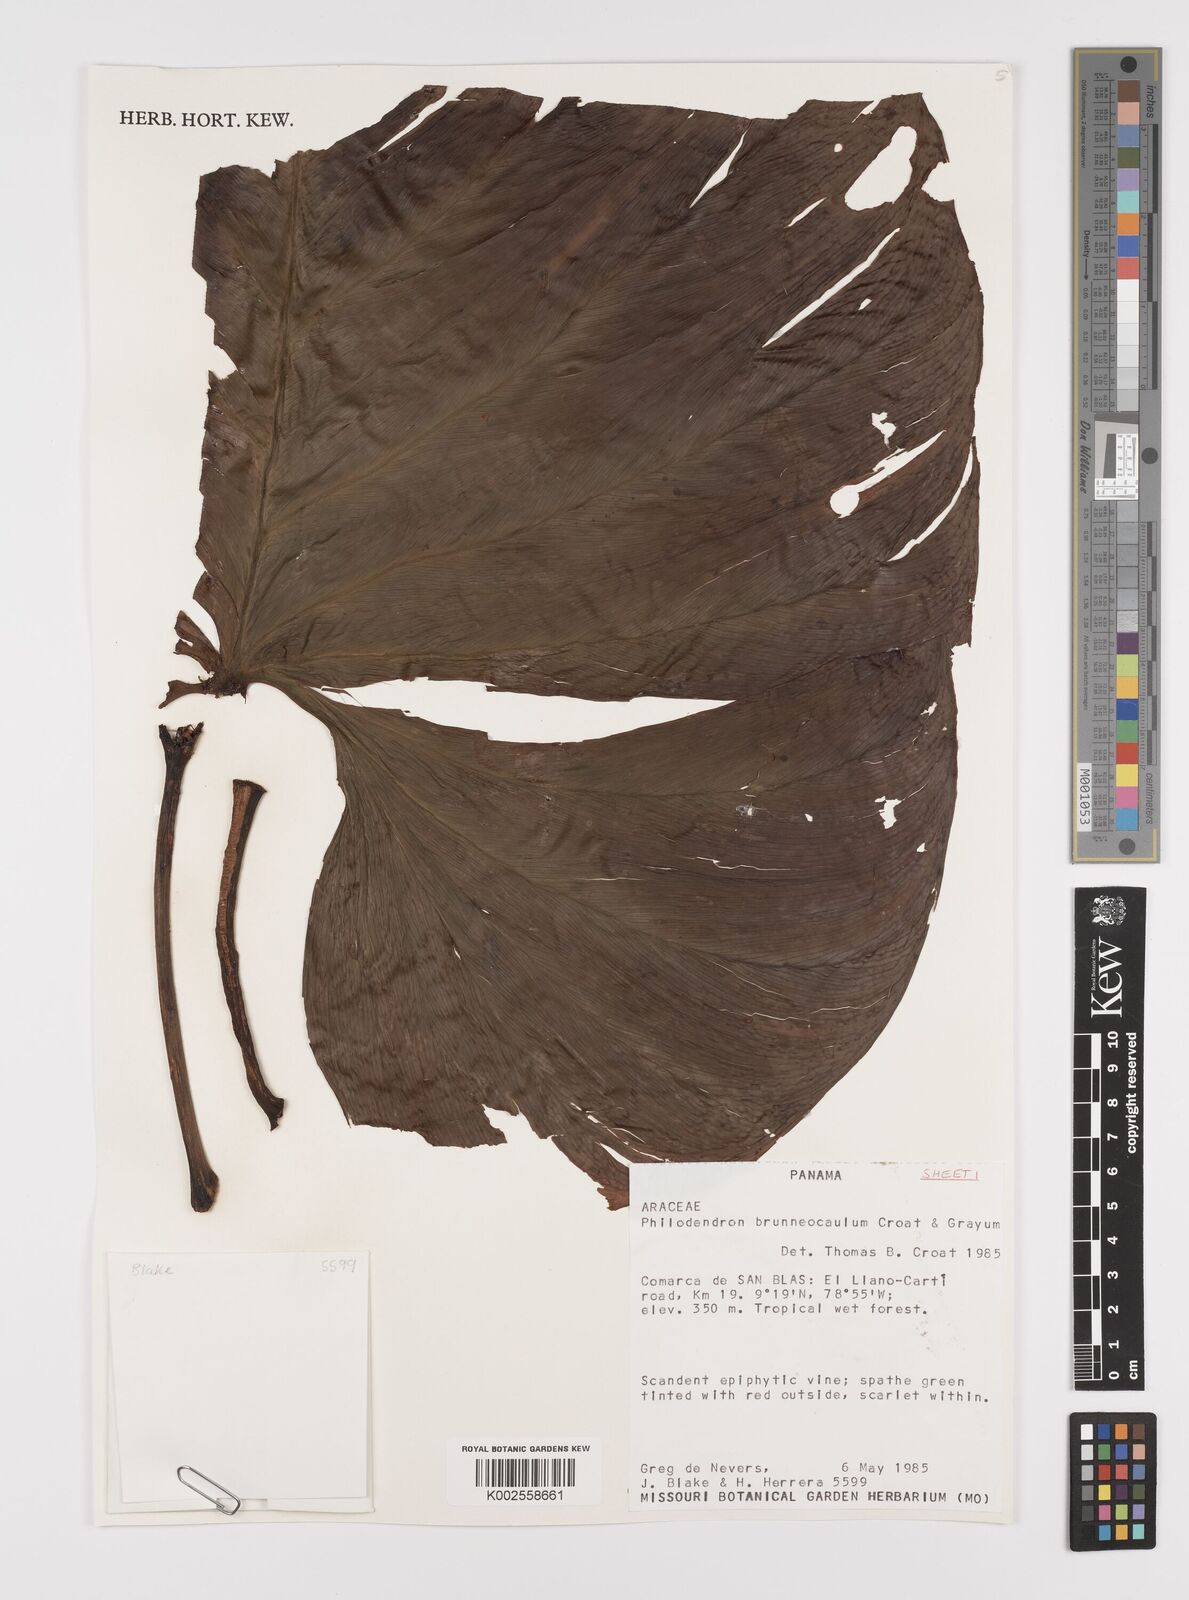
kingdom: Plantae
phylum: Tracheophyta
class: Liliopsida
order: Alismatales
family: Araceae
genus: Philodendron
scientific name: Philodendron brunneicaule
